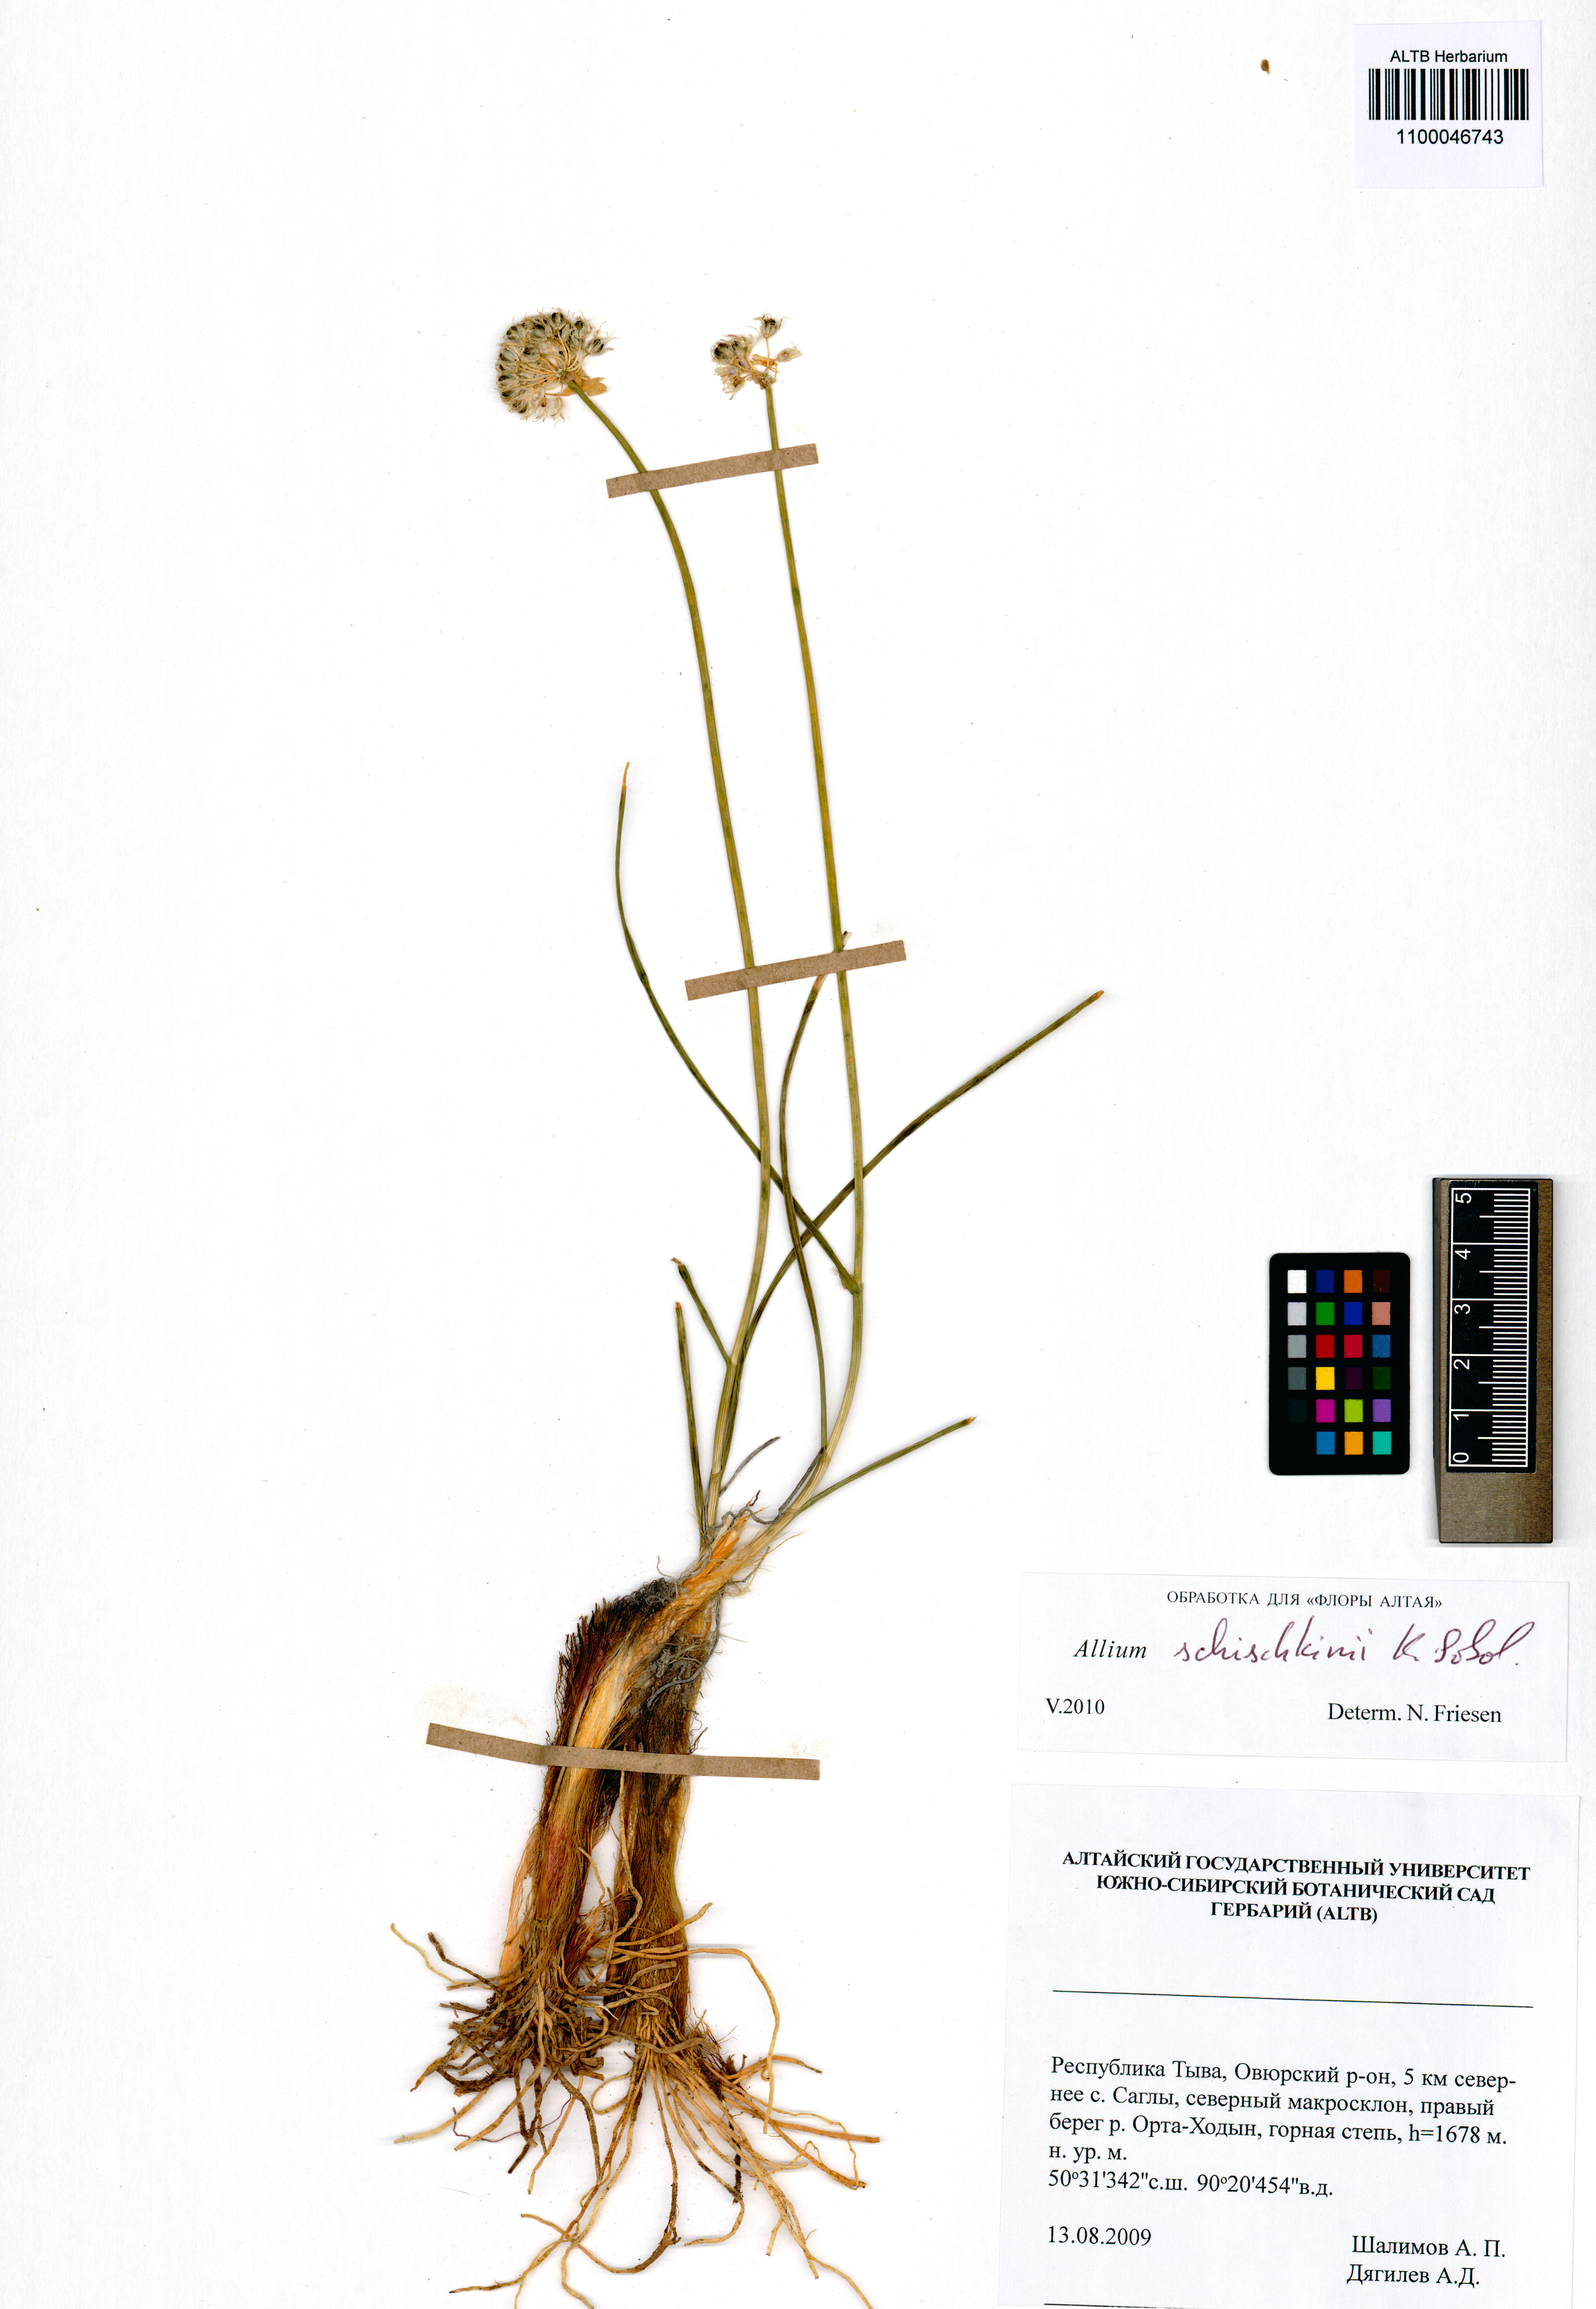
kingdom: Plantae
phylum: Tracheophyta
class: Liliopsida
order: Asparagales
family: Amaryllidaceae
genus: Allium
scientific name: Allium schischkinii
